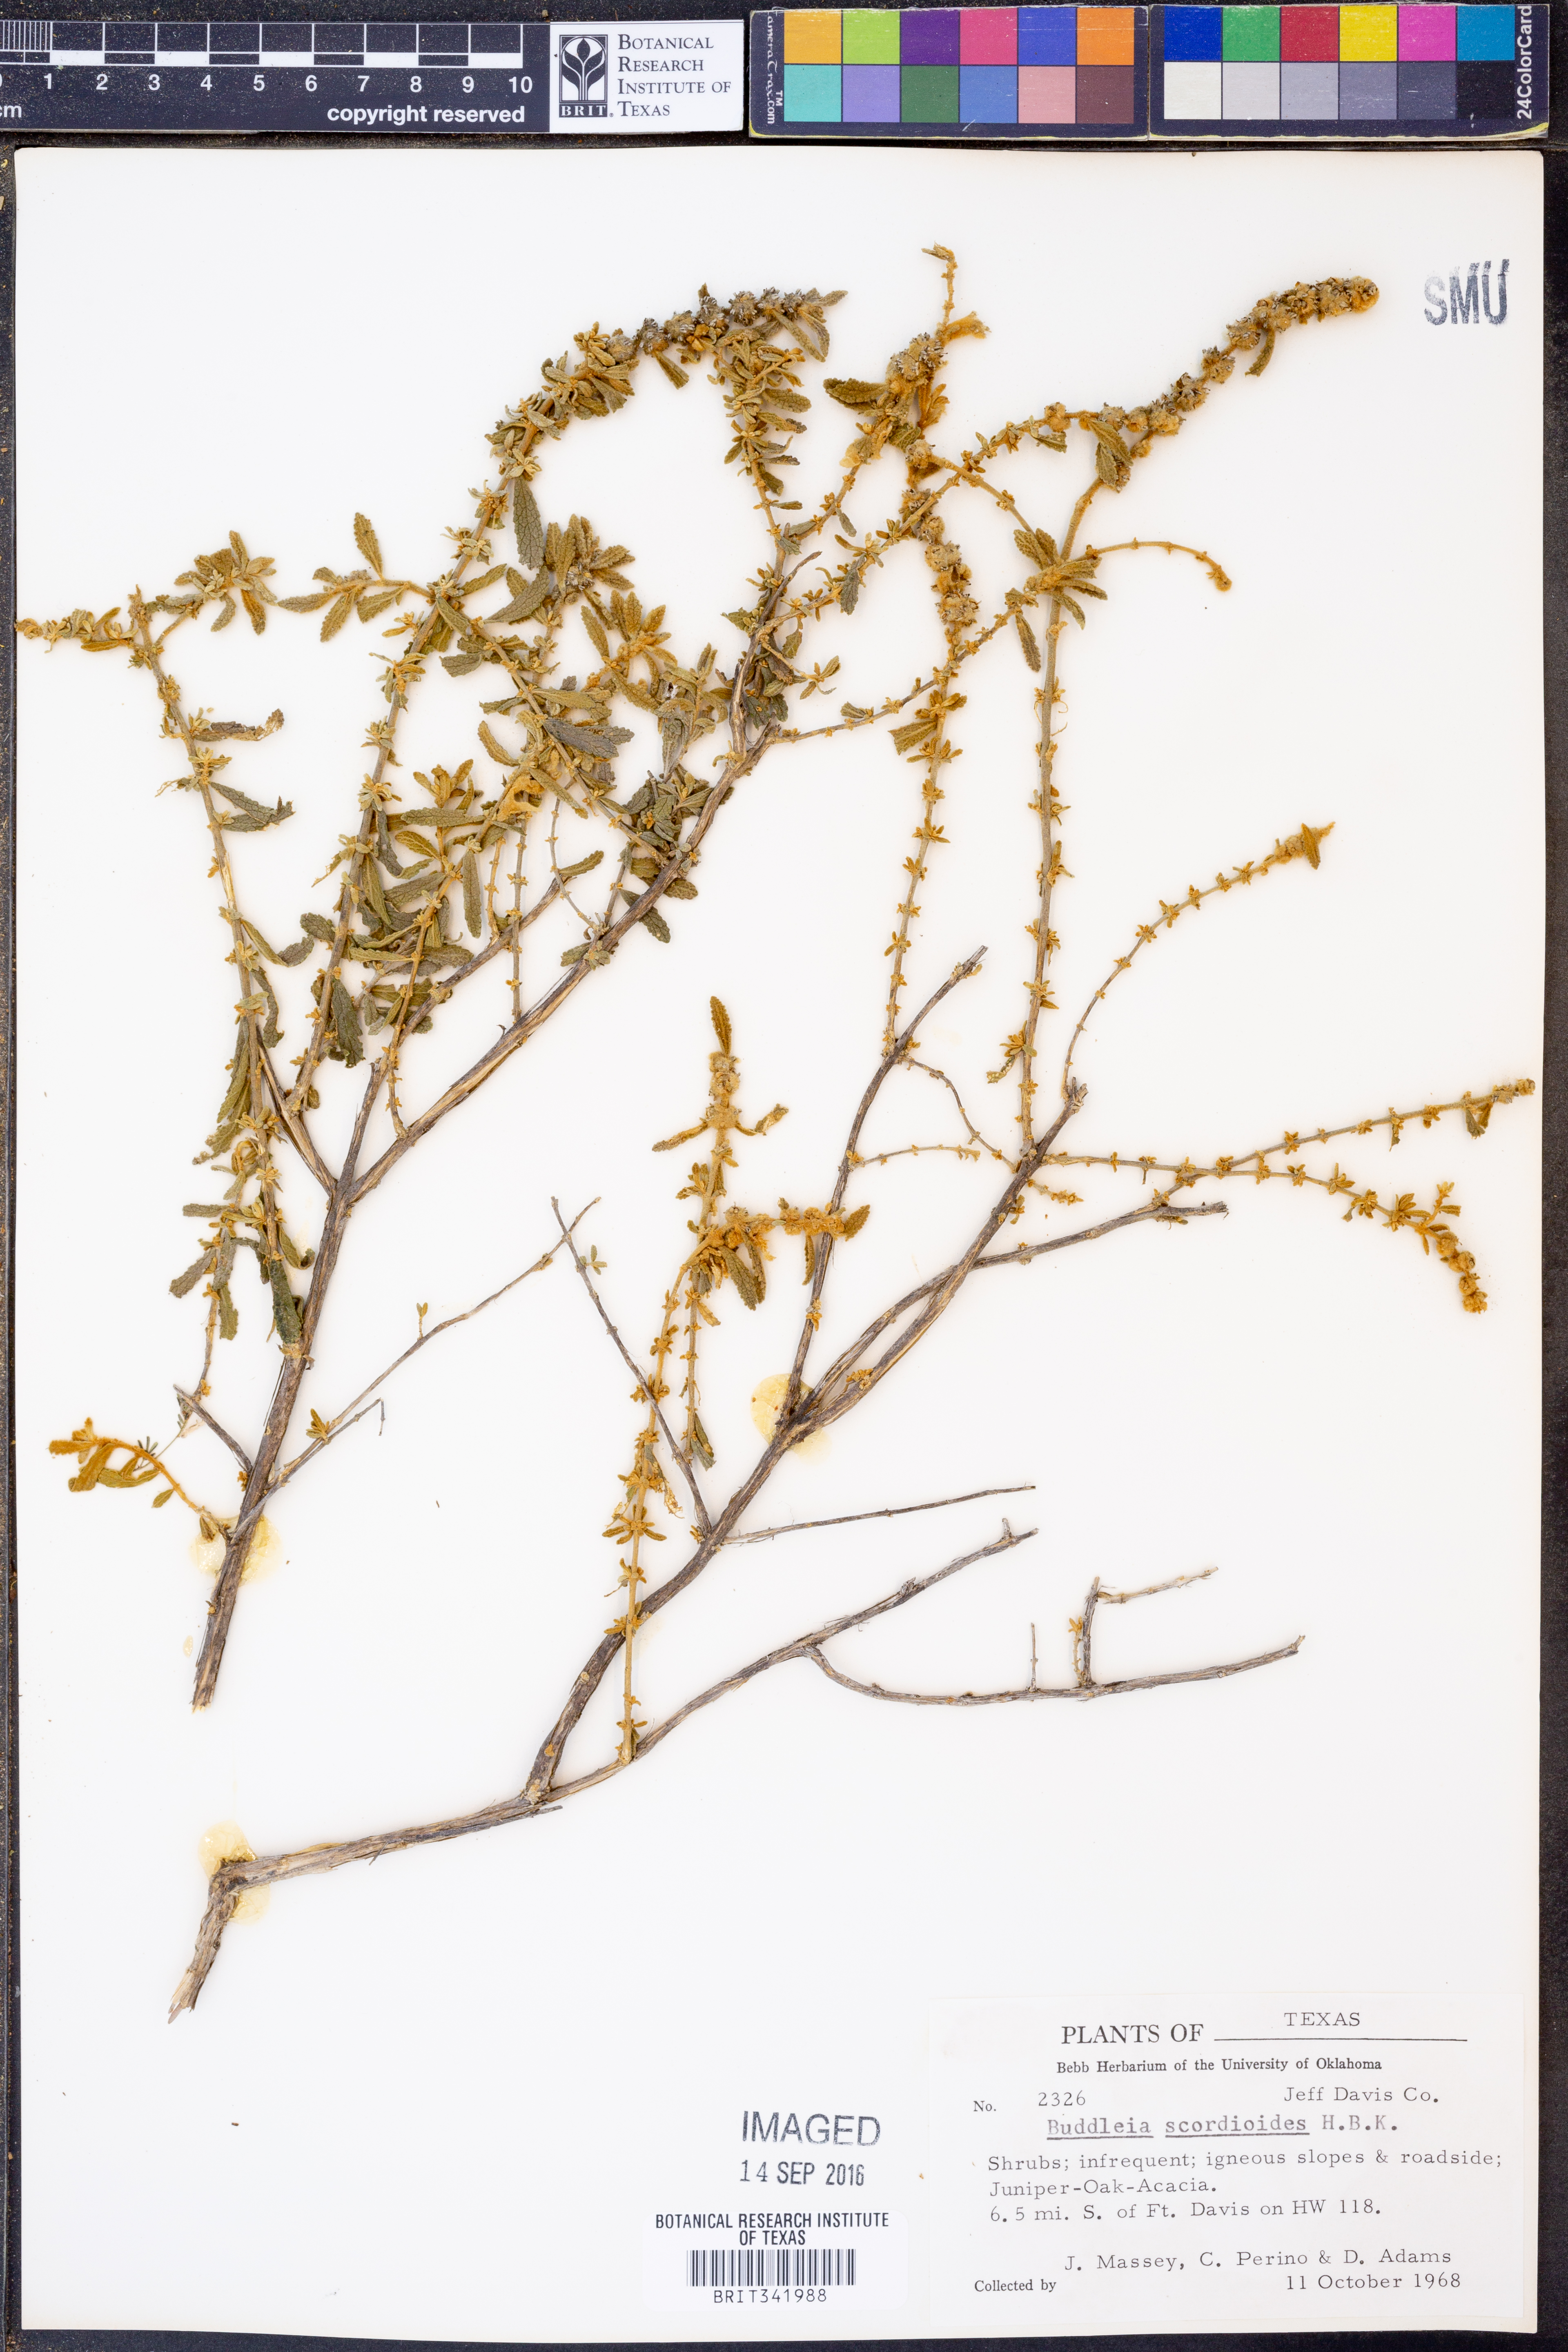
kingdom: Plantae
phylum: Tracheophyta
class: Magnoliopsida
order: Lamiales
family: Scrophulariaceae
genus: Buddleja
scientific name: Buddleja scordioides
